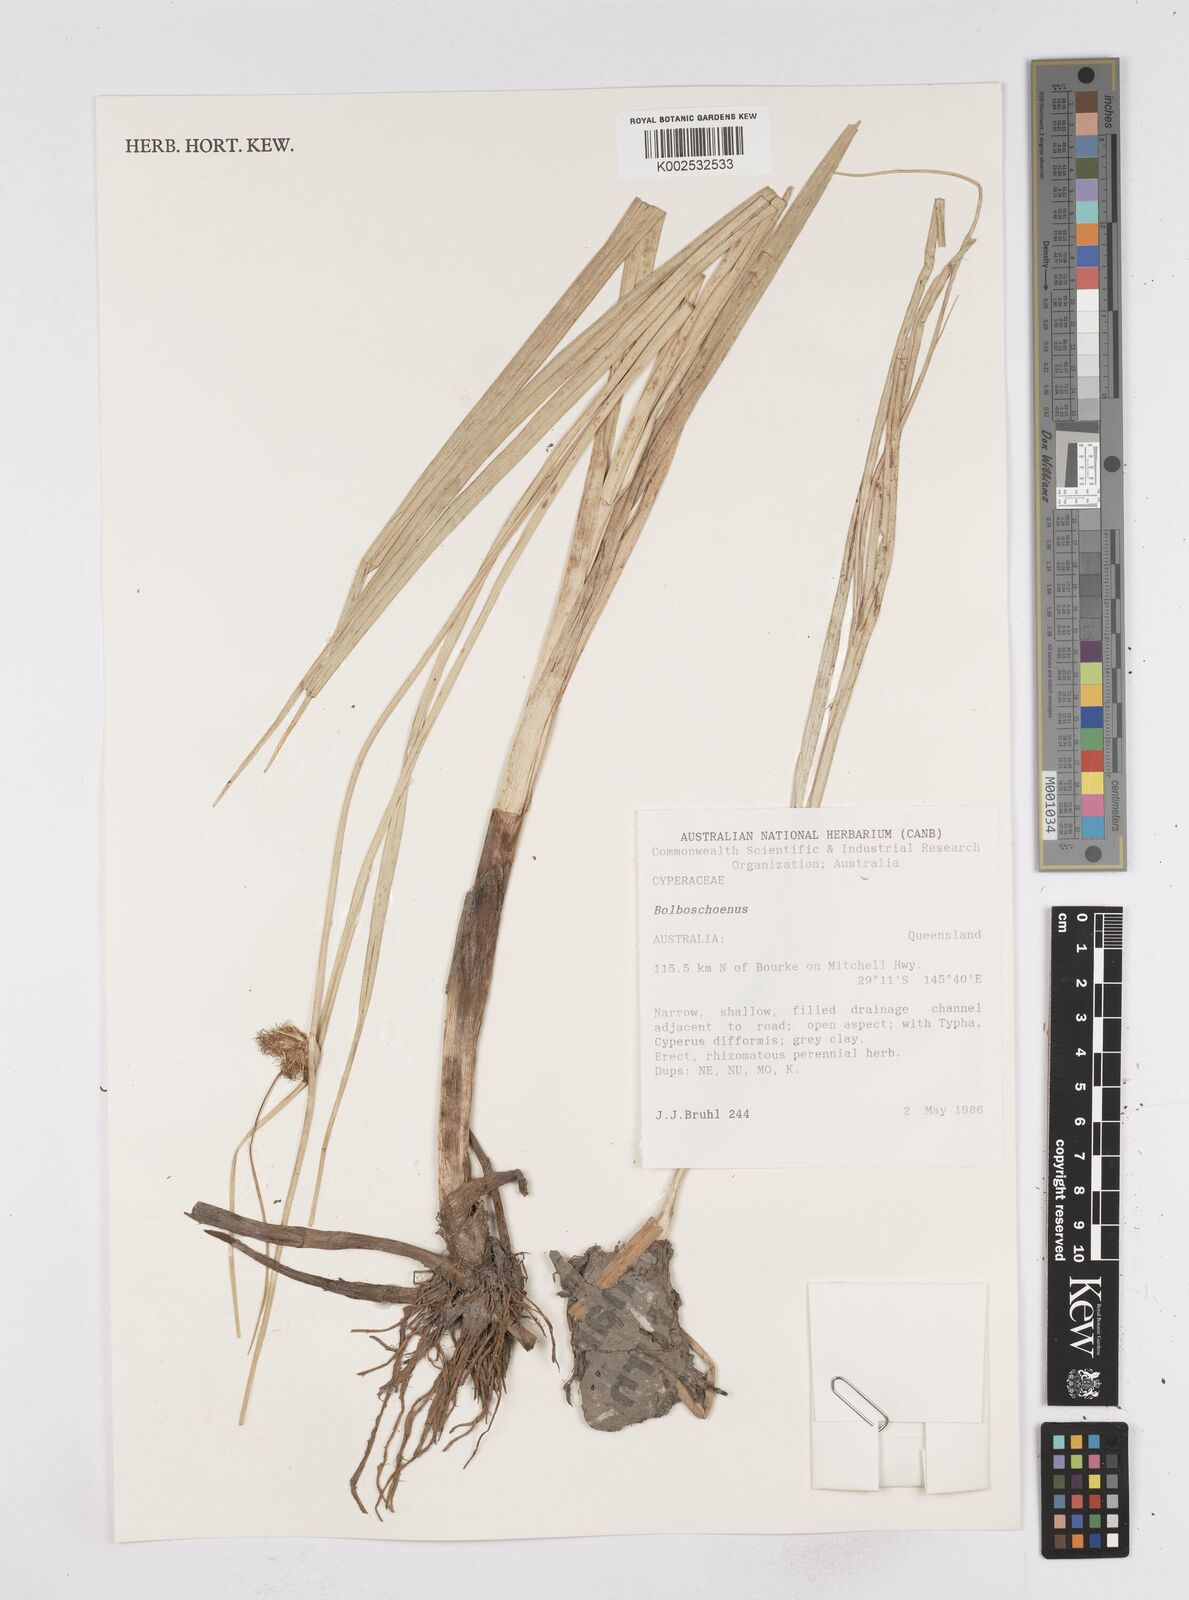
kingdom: Plantae
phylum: Tracheophyta
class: Liliopsida
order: Poales
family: Cyperaceae
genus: Bolboschoenus
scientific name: Bolboschoenus
